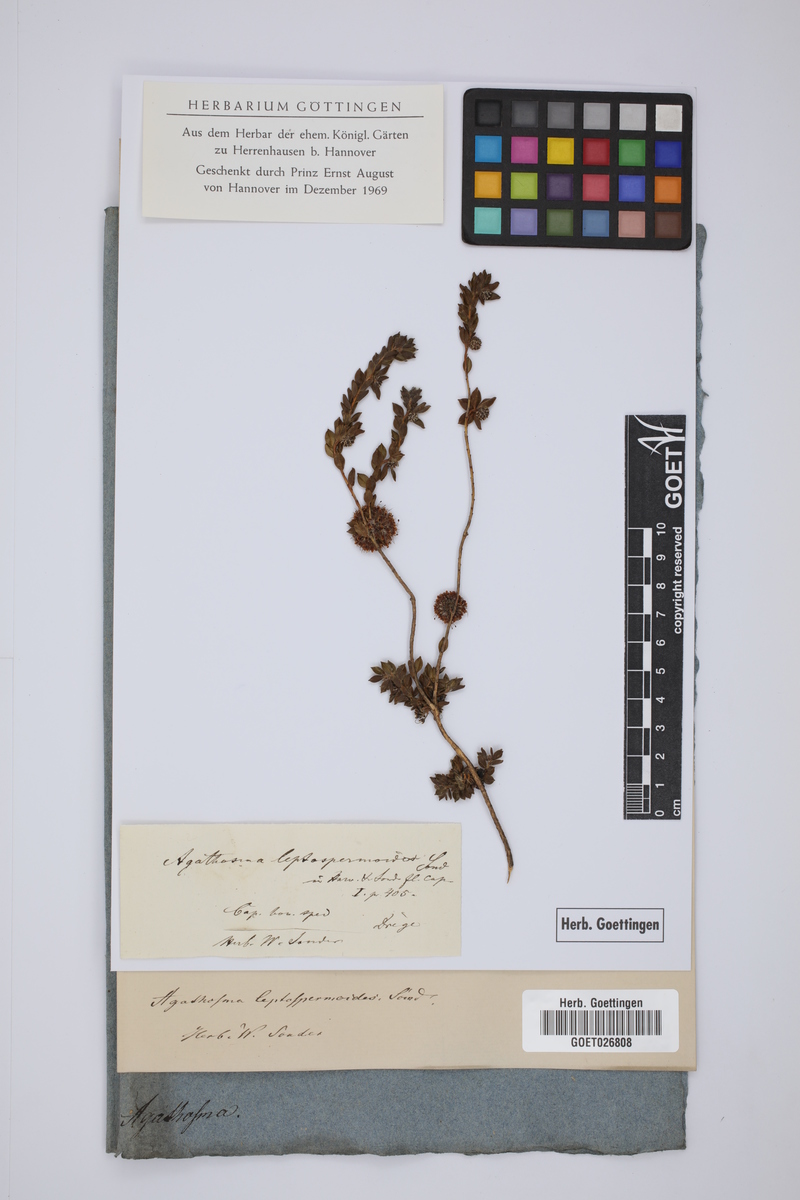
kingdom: Plantae
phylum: Tracheophyta
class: Magnoliopsida
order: Sapindales
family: Rutaceae
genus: Agathosma
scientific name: Agathosma leptospermoides
